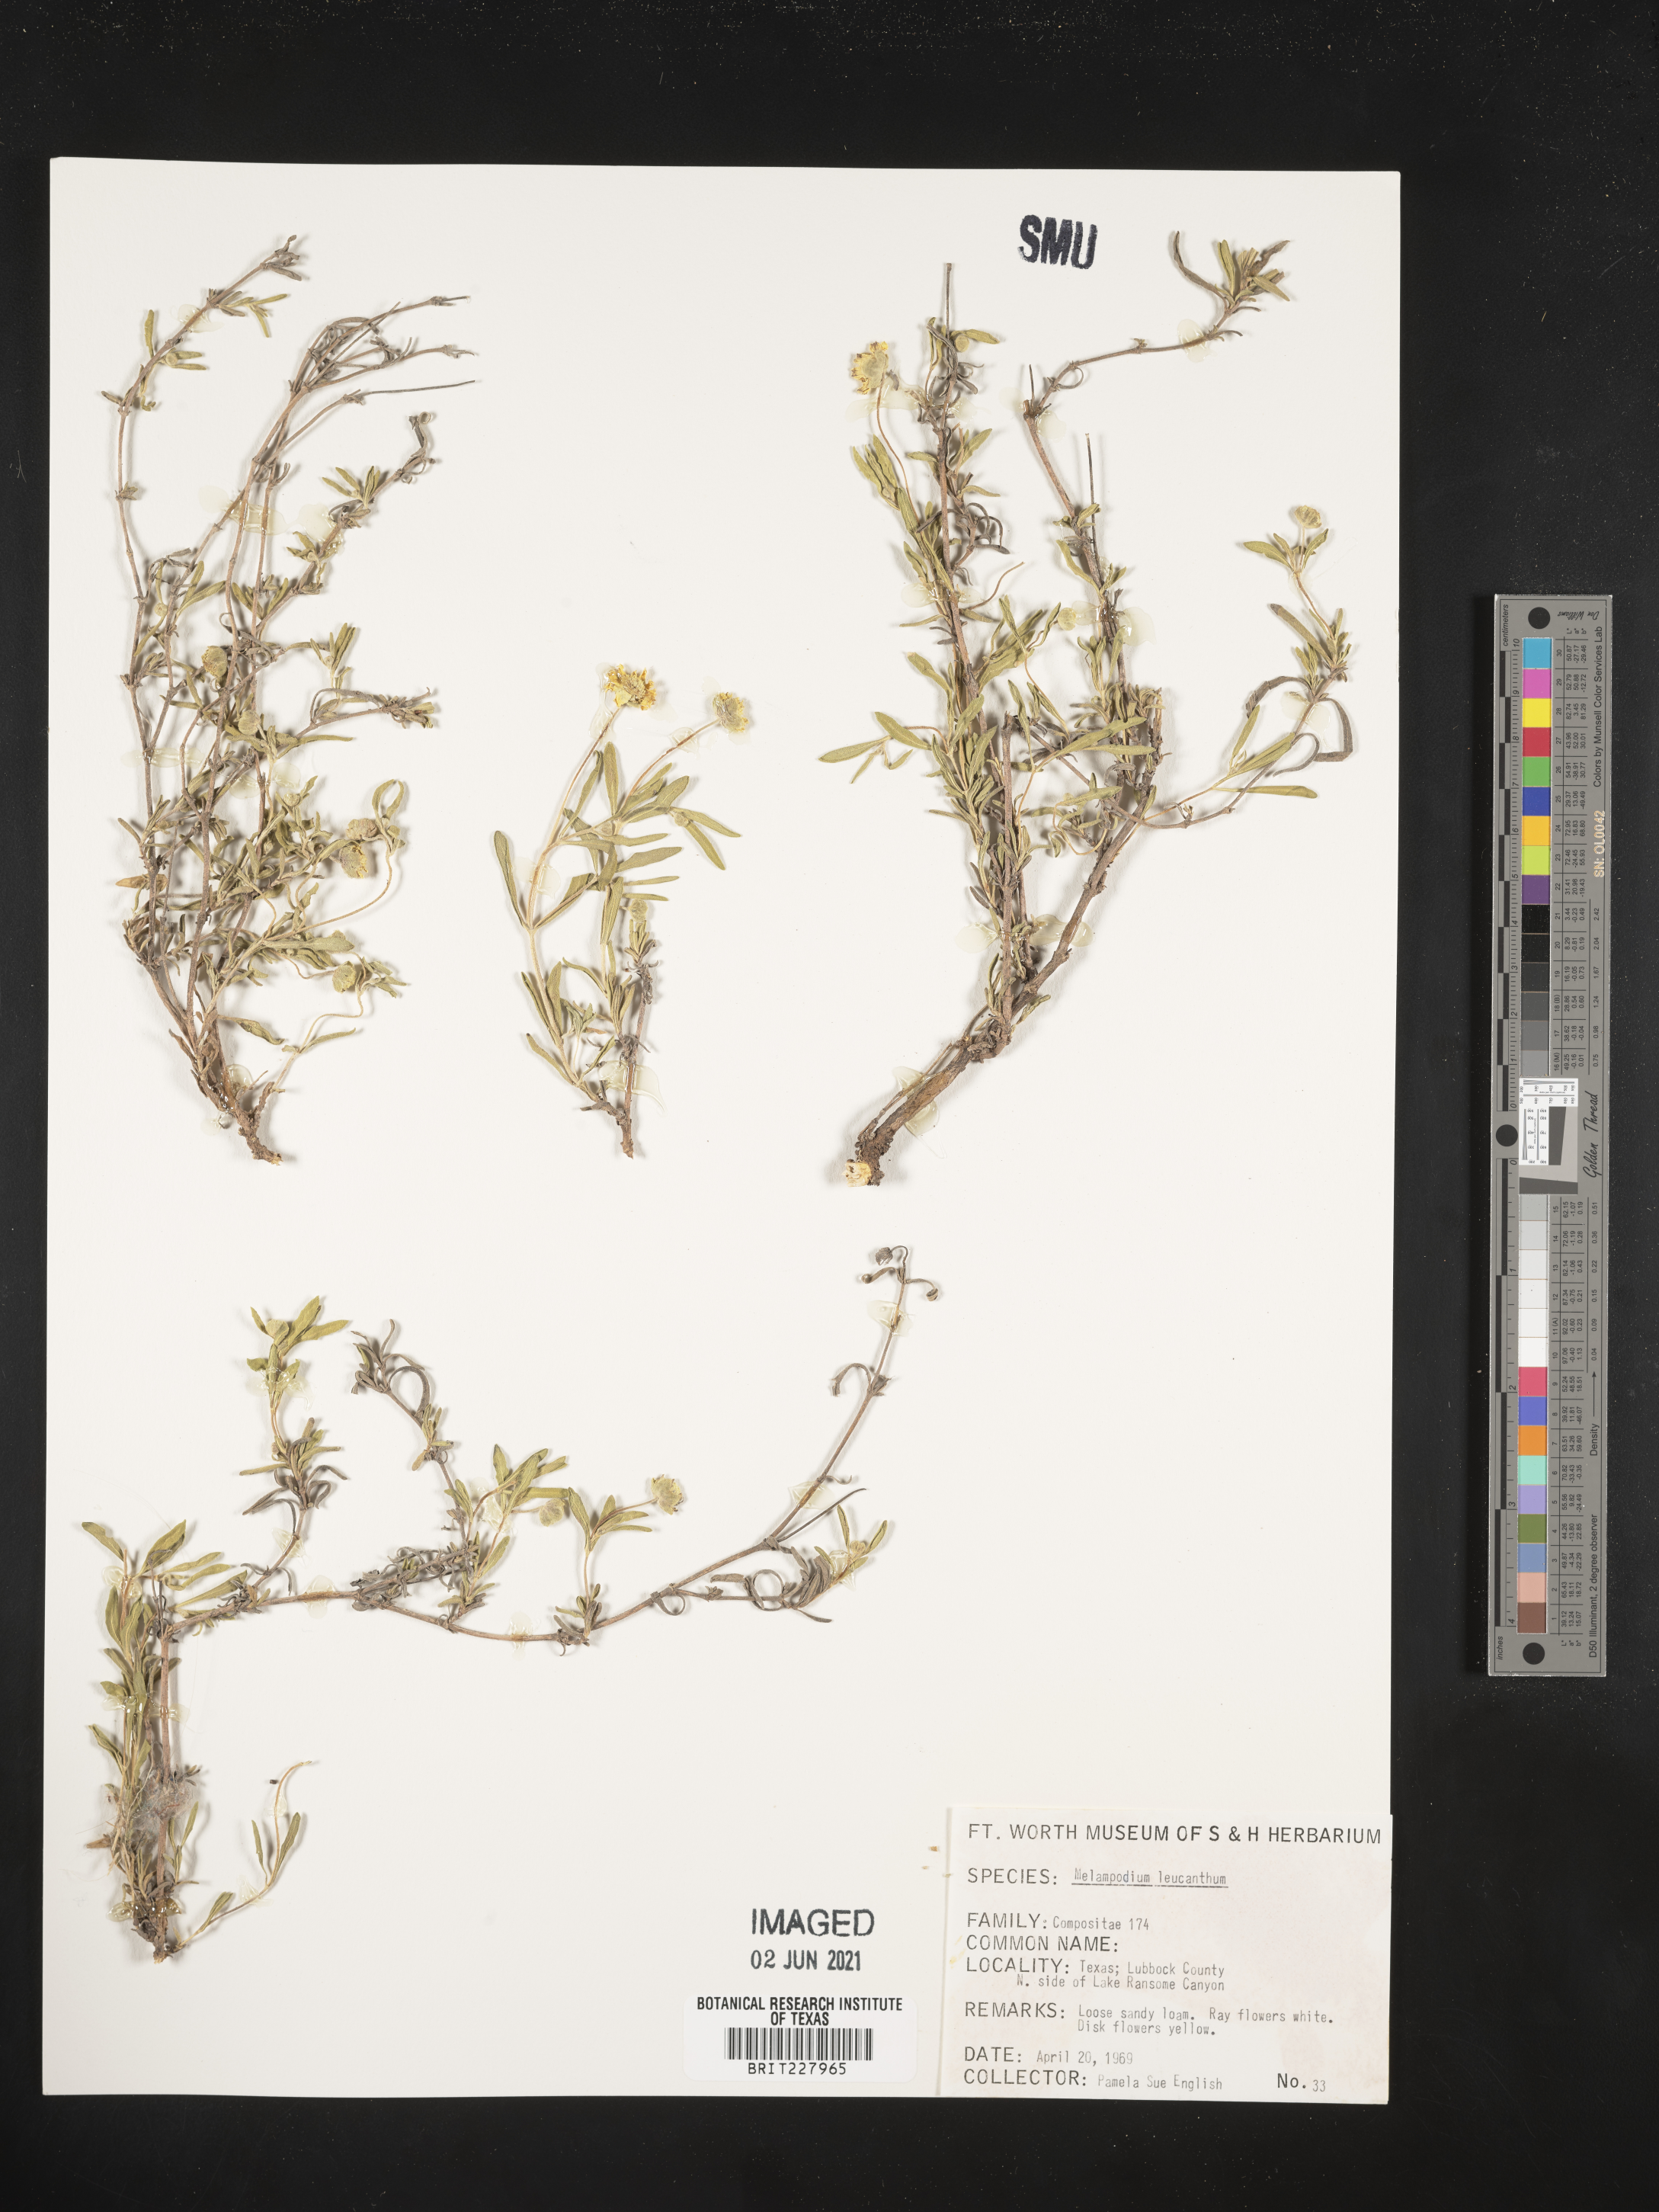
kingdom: Plantae
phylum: Tracheophyta
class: Magnoliopsida
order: Asterales
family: Asteraceae
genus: Melampodium
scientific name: Melampodium leucanthum
